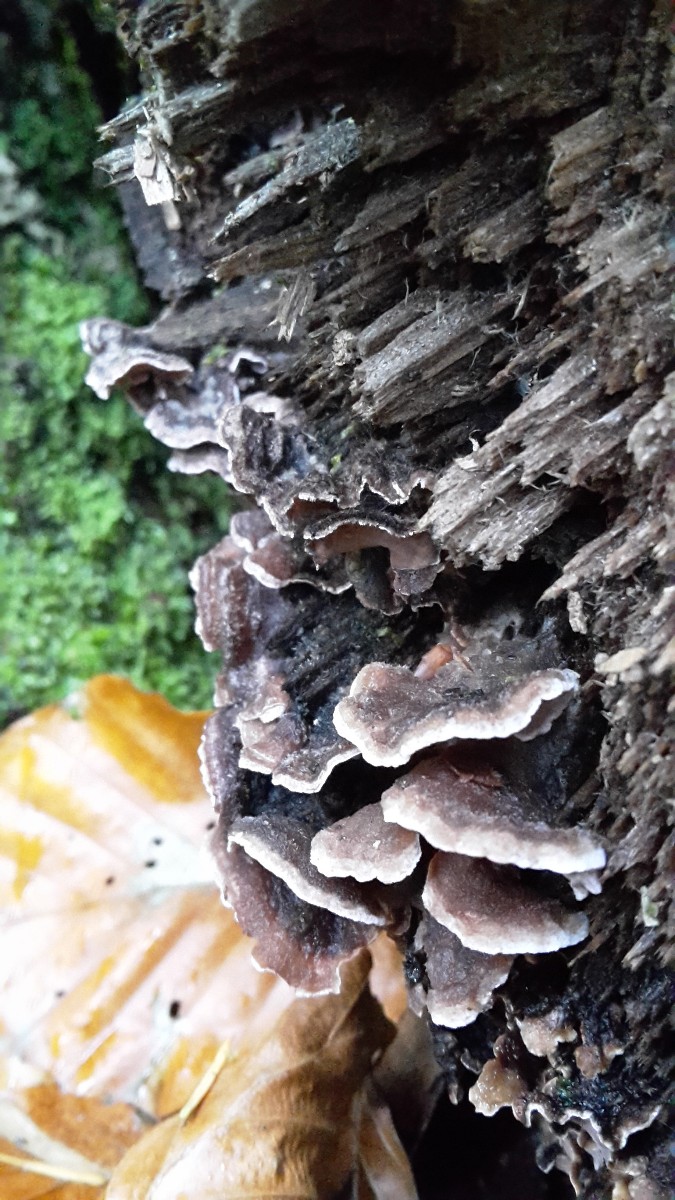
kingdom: Fungi
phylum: Basidiomycota
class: Agaricomycetes
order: Russulales
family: Hericiaceae
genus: Laxitextum
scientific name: Laxitextum bicolor
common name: tvefarvet filtskind
